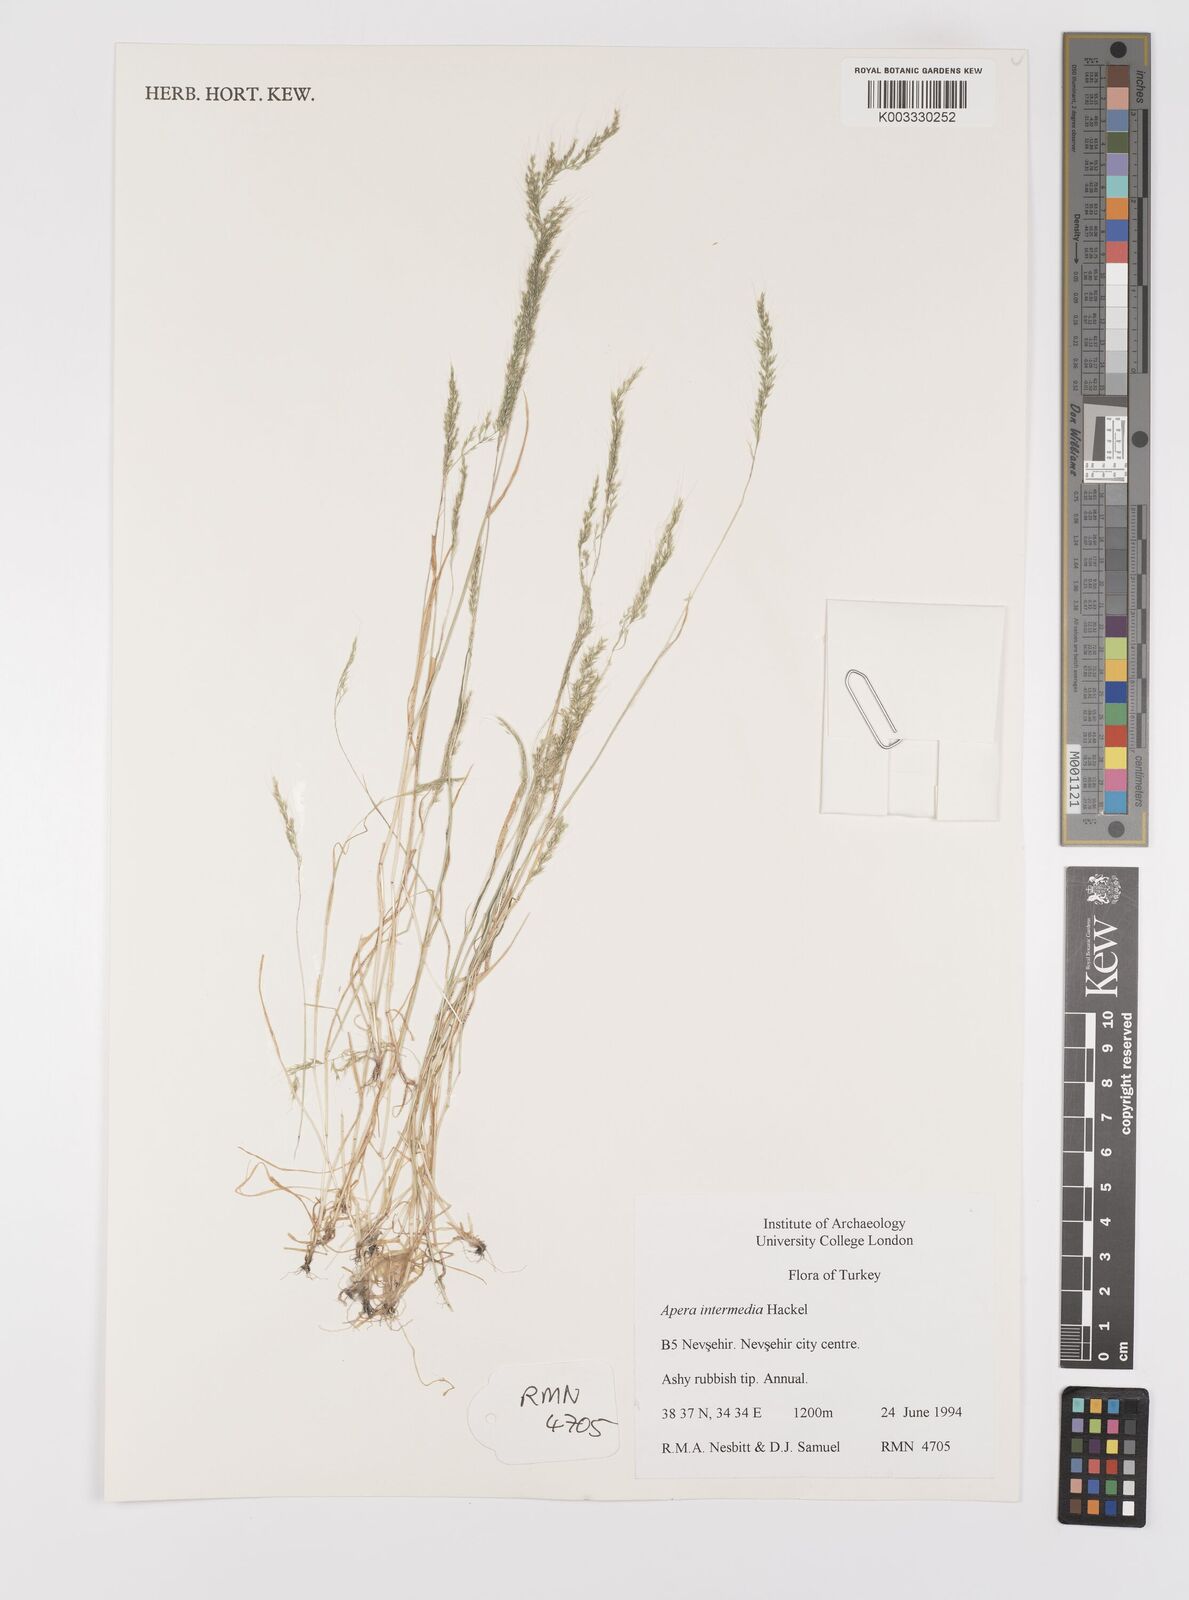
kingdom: Plantae
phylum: Tracheophyta
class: Liliopsida
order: Poales
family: Poaceae
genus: Apera
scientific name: Apera intermedia
